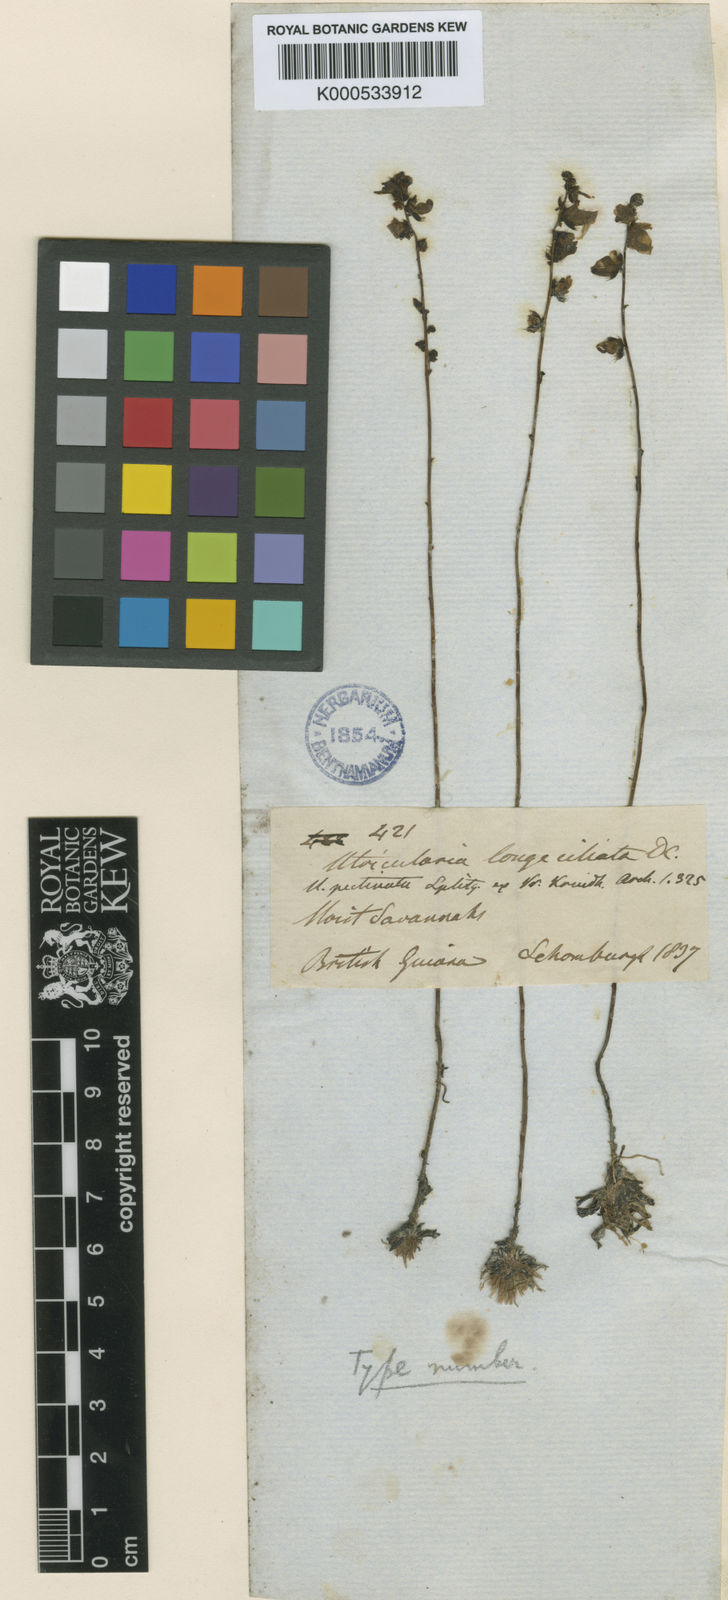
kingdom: Plantae
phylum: Tracheophyta
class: Magnoliopsida
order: Lamiales
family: Lentibulariaceae
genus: Utricularia
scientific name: Utricularia longeciliata
